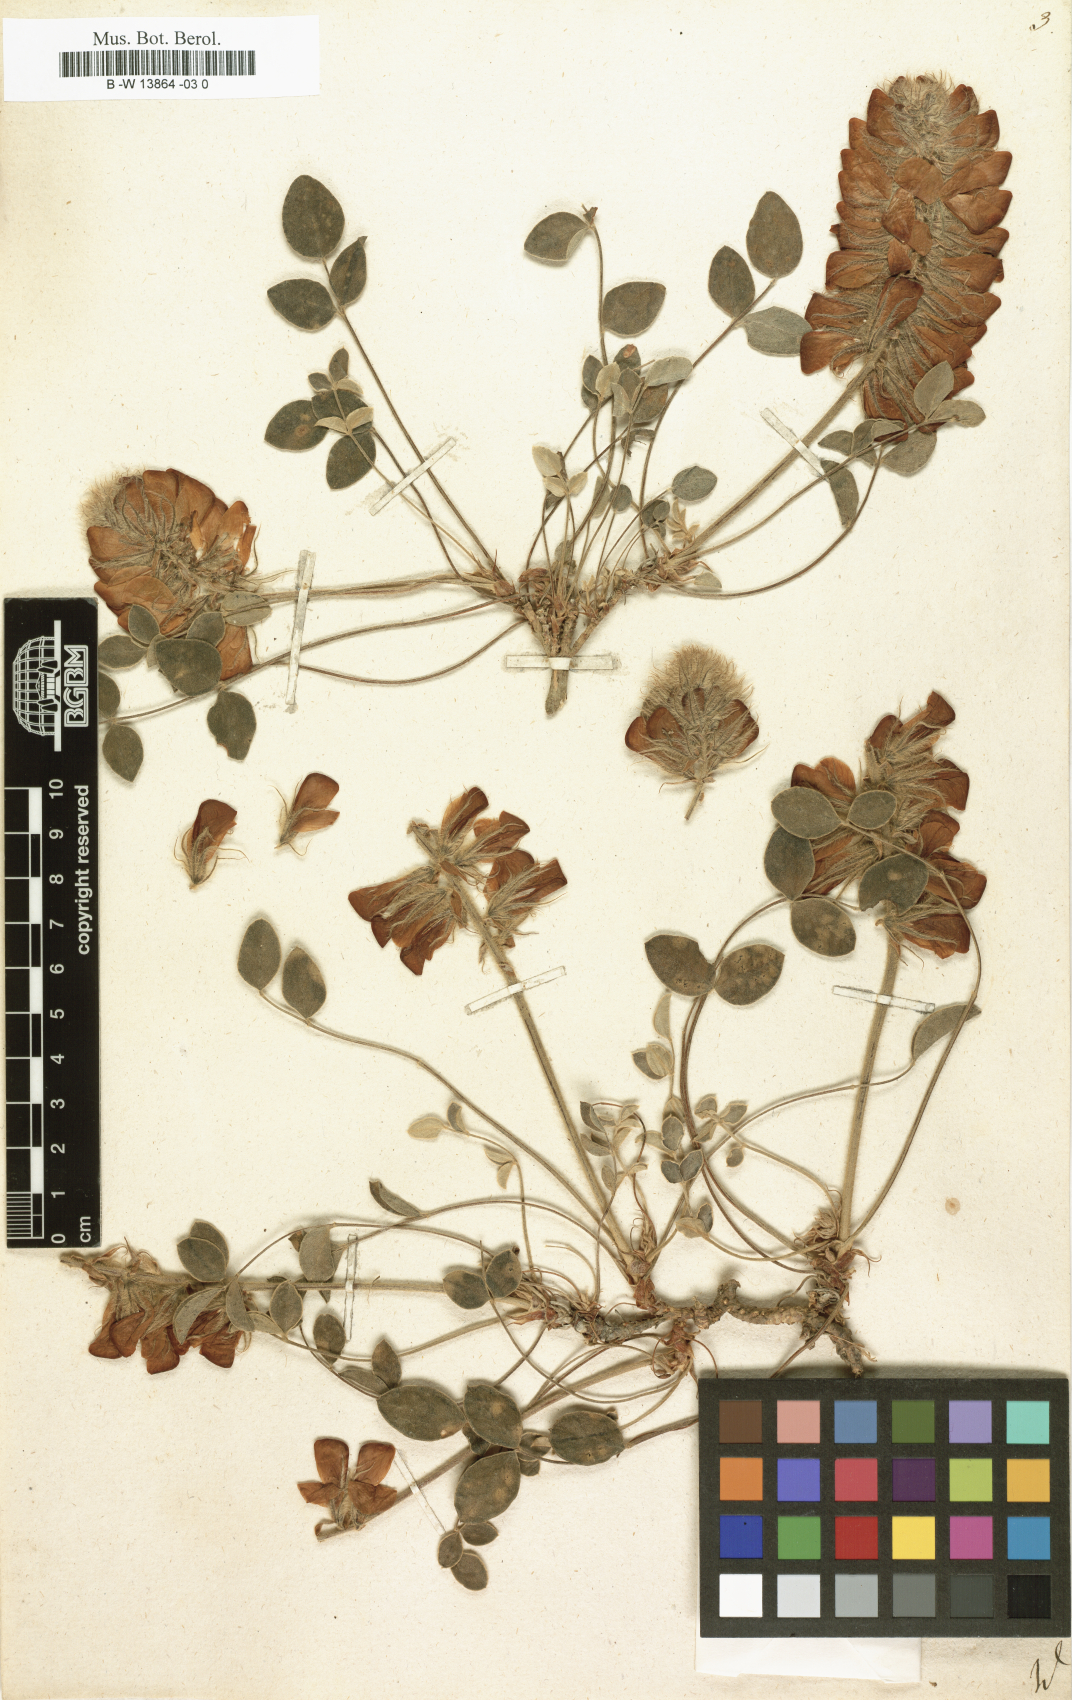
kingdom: Plantae
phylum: Tracheophyta
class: Magnoliopsida
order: Fabales
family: Fabaceae
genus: Hedysarum
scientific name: Hedysarum
